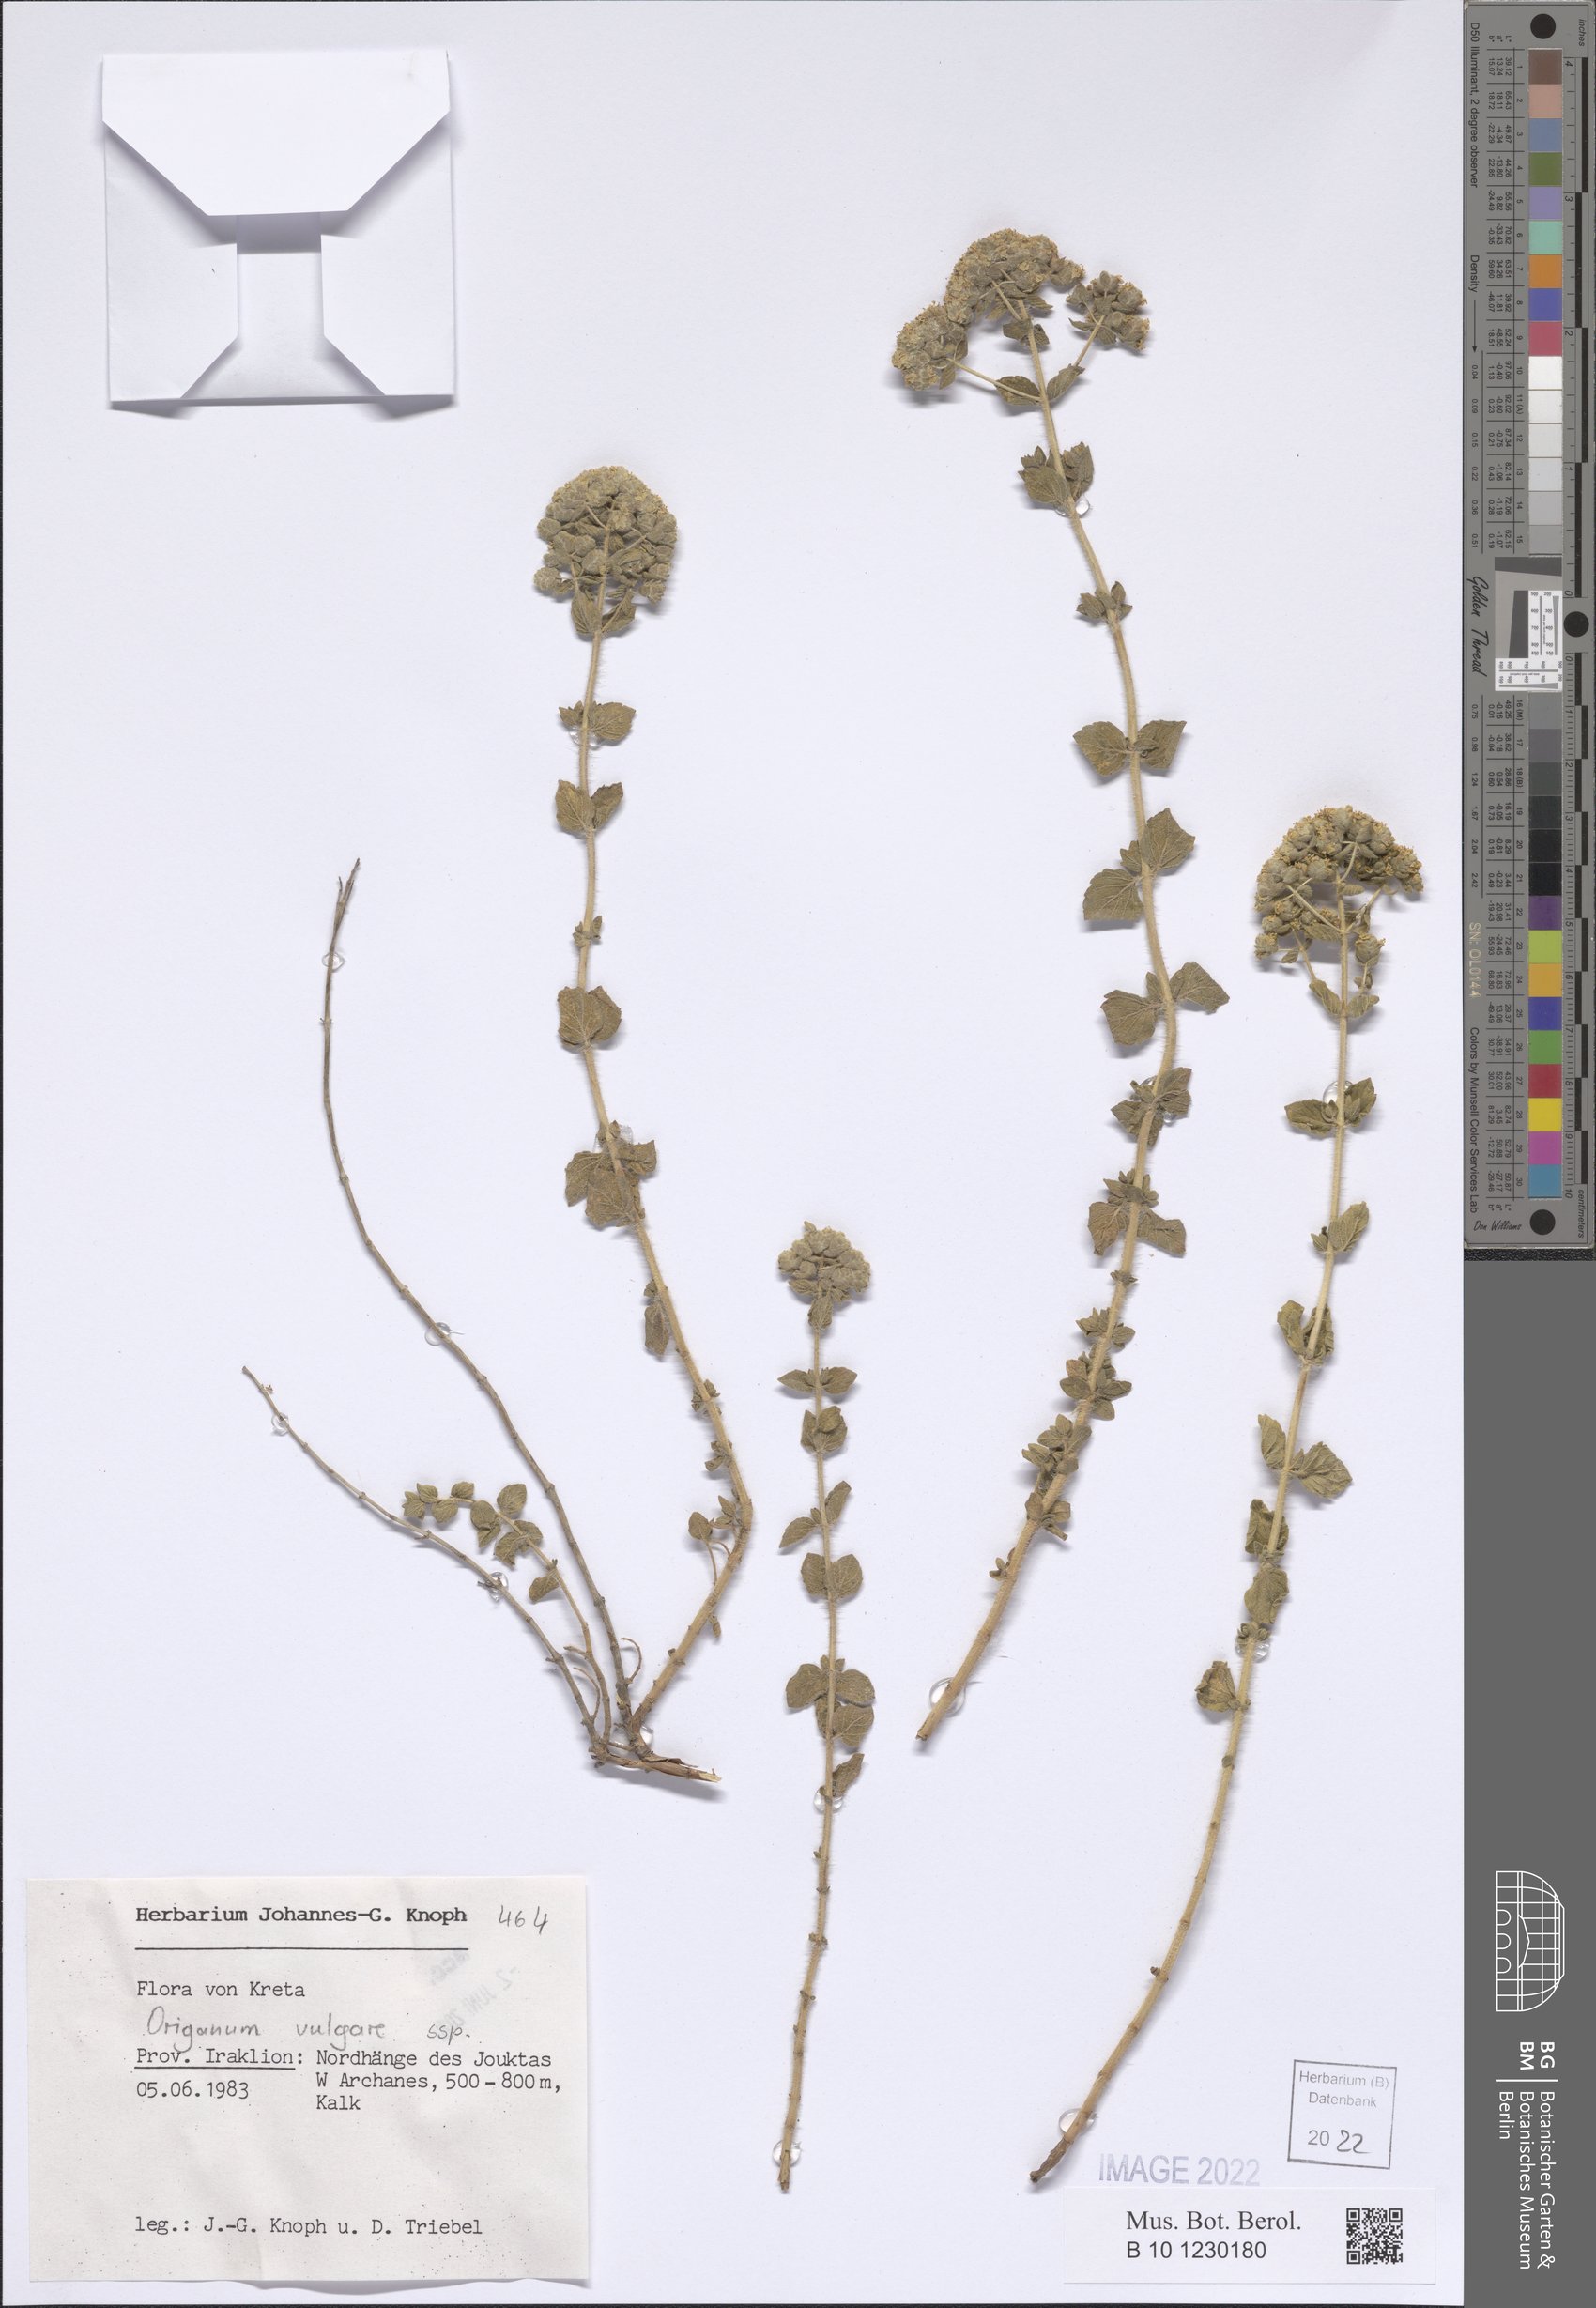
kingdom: Plantae
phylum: Tracheophyta
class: Magnoliopsida
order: Lamiales
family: Lamiaceae
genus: Origanum
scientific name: Origanum vulgare
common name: Wild marjoram
